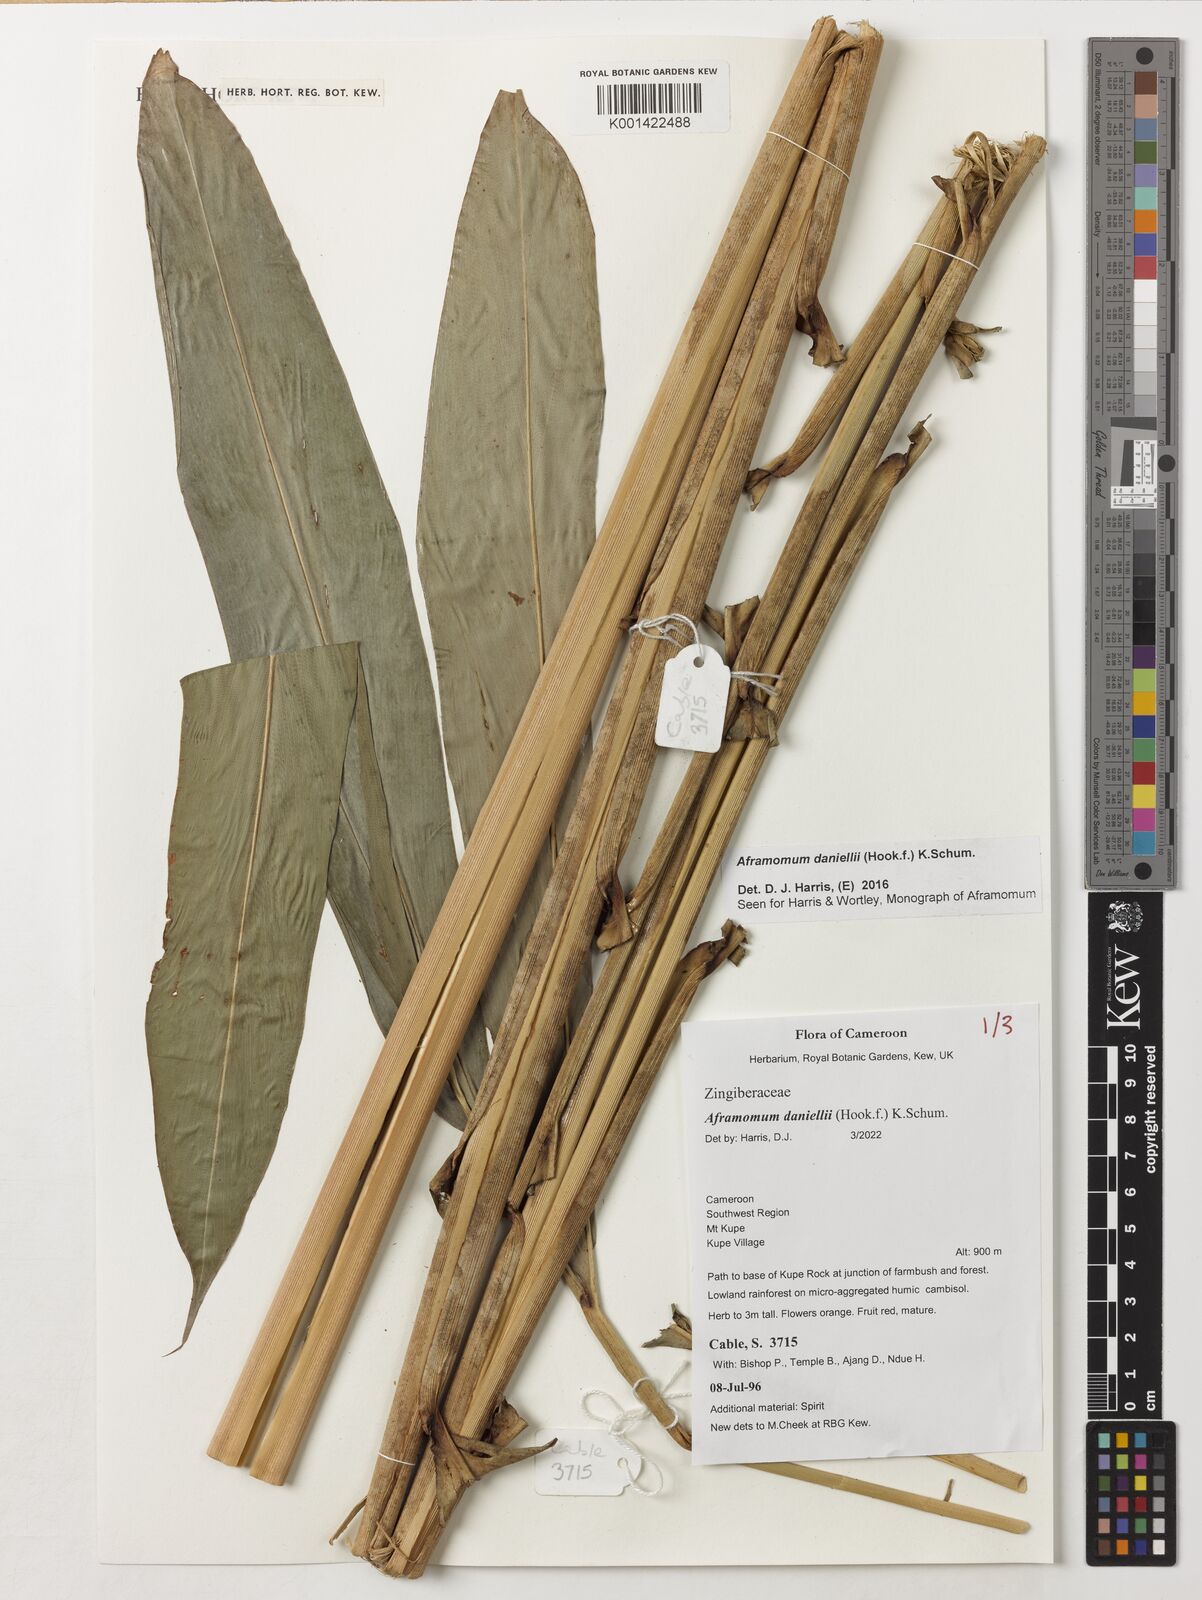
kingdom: Plantae
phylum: Tracheophyta
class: Liliopsida
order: Zingiberales
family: Zingiberaceae
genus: Aframomum
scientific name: Aframomum daniellii
